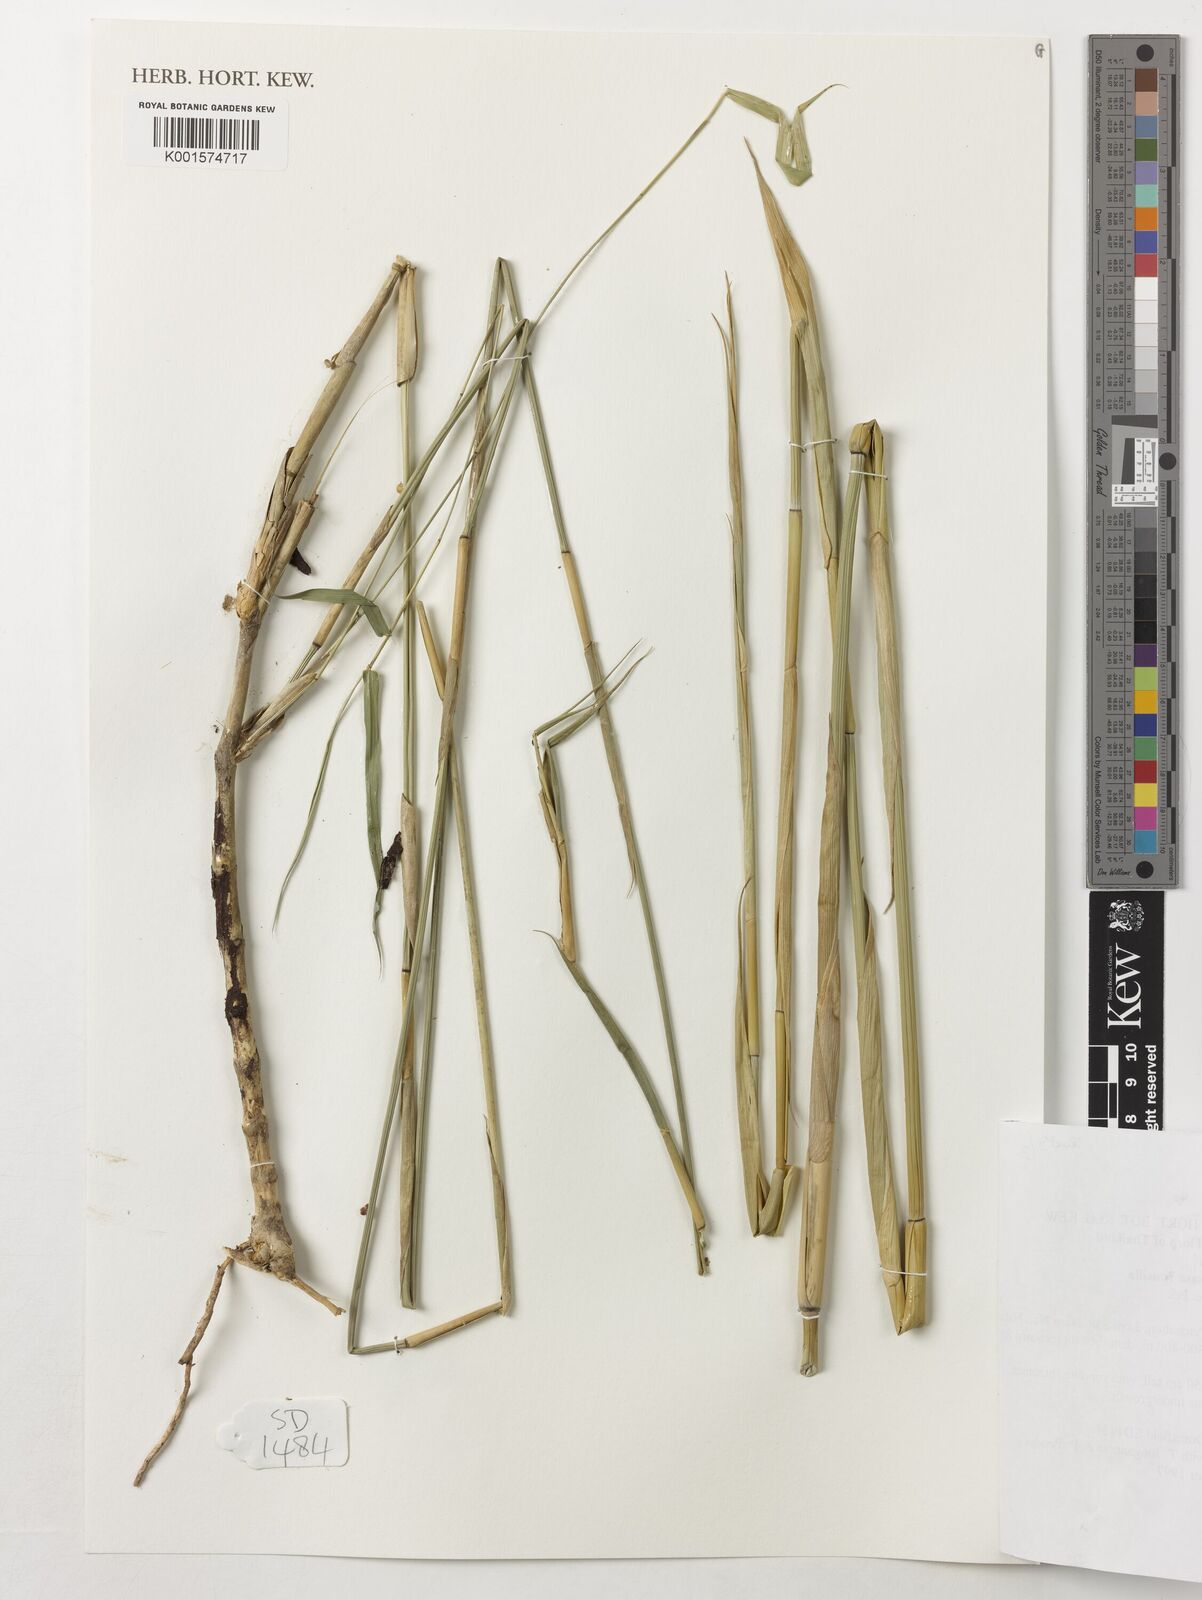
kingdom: Plantae
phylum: Tracheophyta
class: Liliopsida
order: Poales
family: Poaceae
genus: Vietnamosasa
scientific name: Vietnamosasa pusilla
